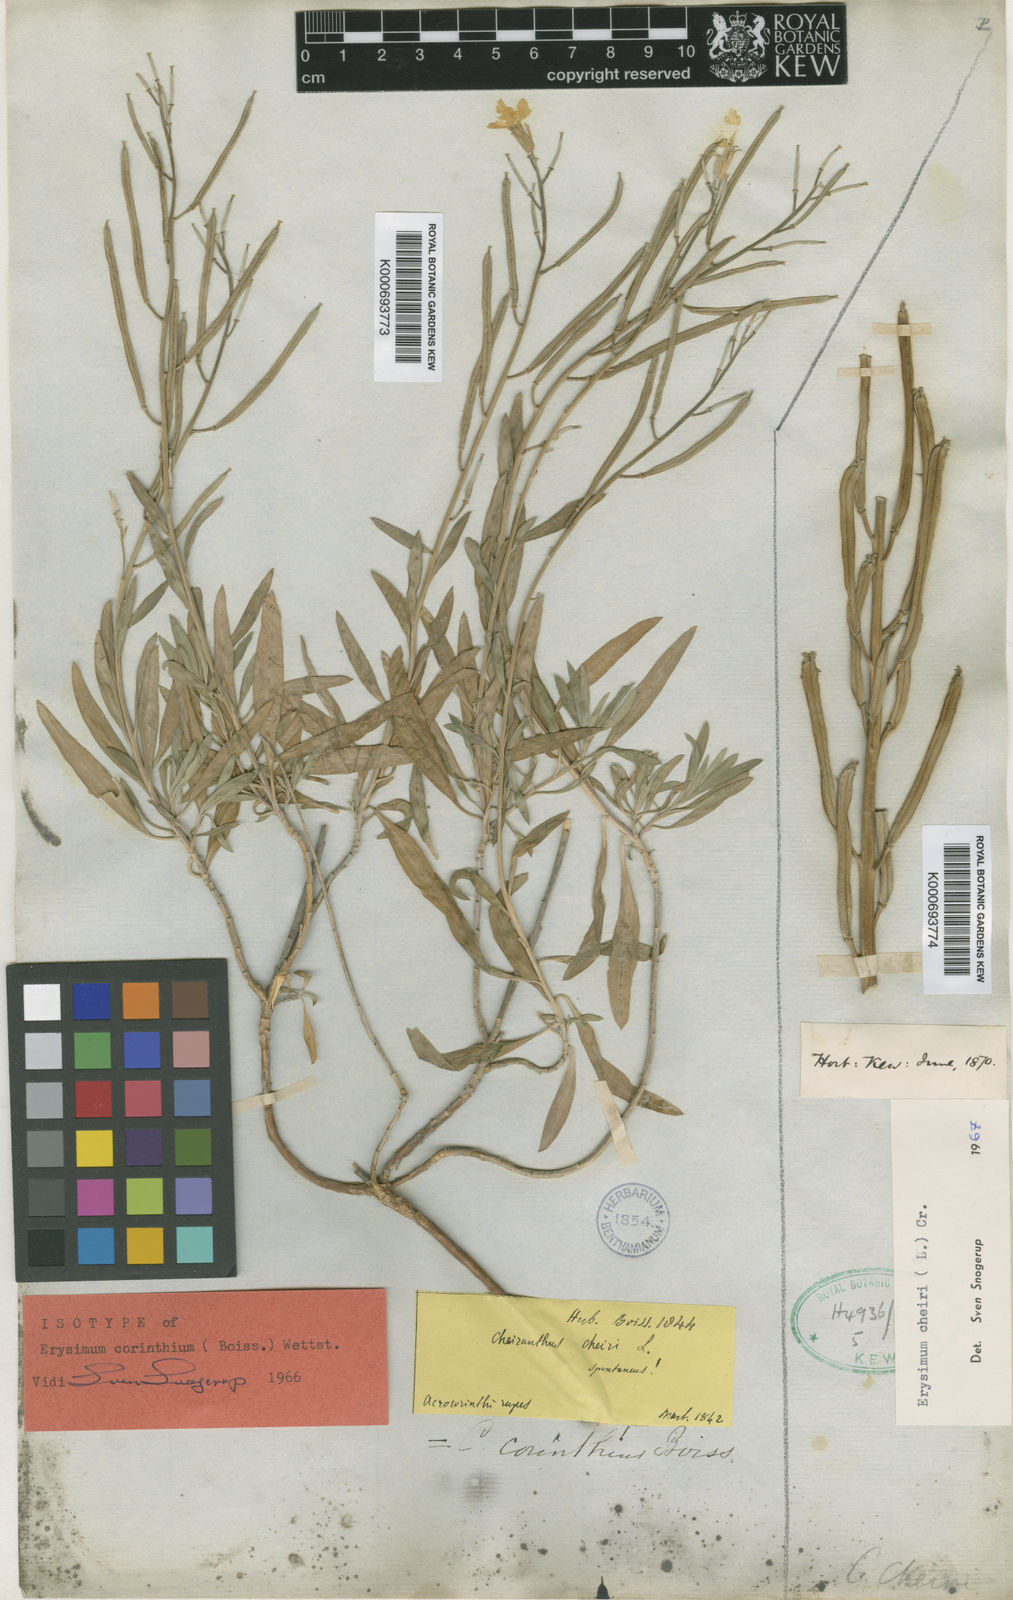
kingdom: Plantae
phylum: Tracheophyta
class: Magnoliopsida
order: Brassicales
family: Brassicaceae
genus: Erysimum
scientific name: Erysimum corinthium
